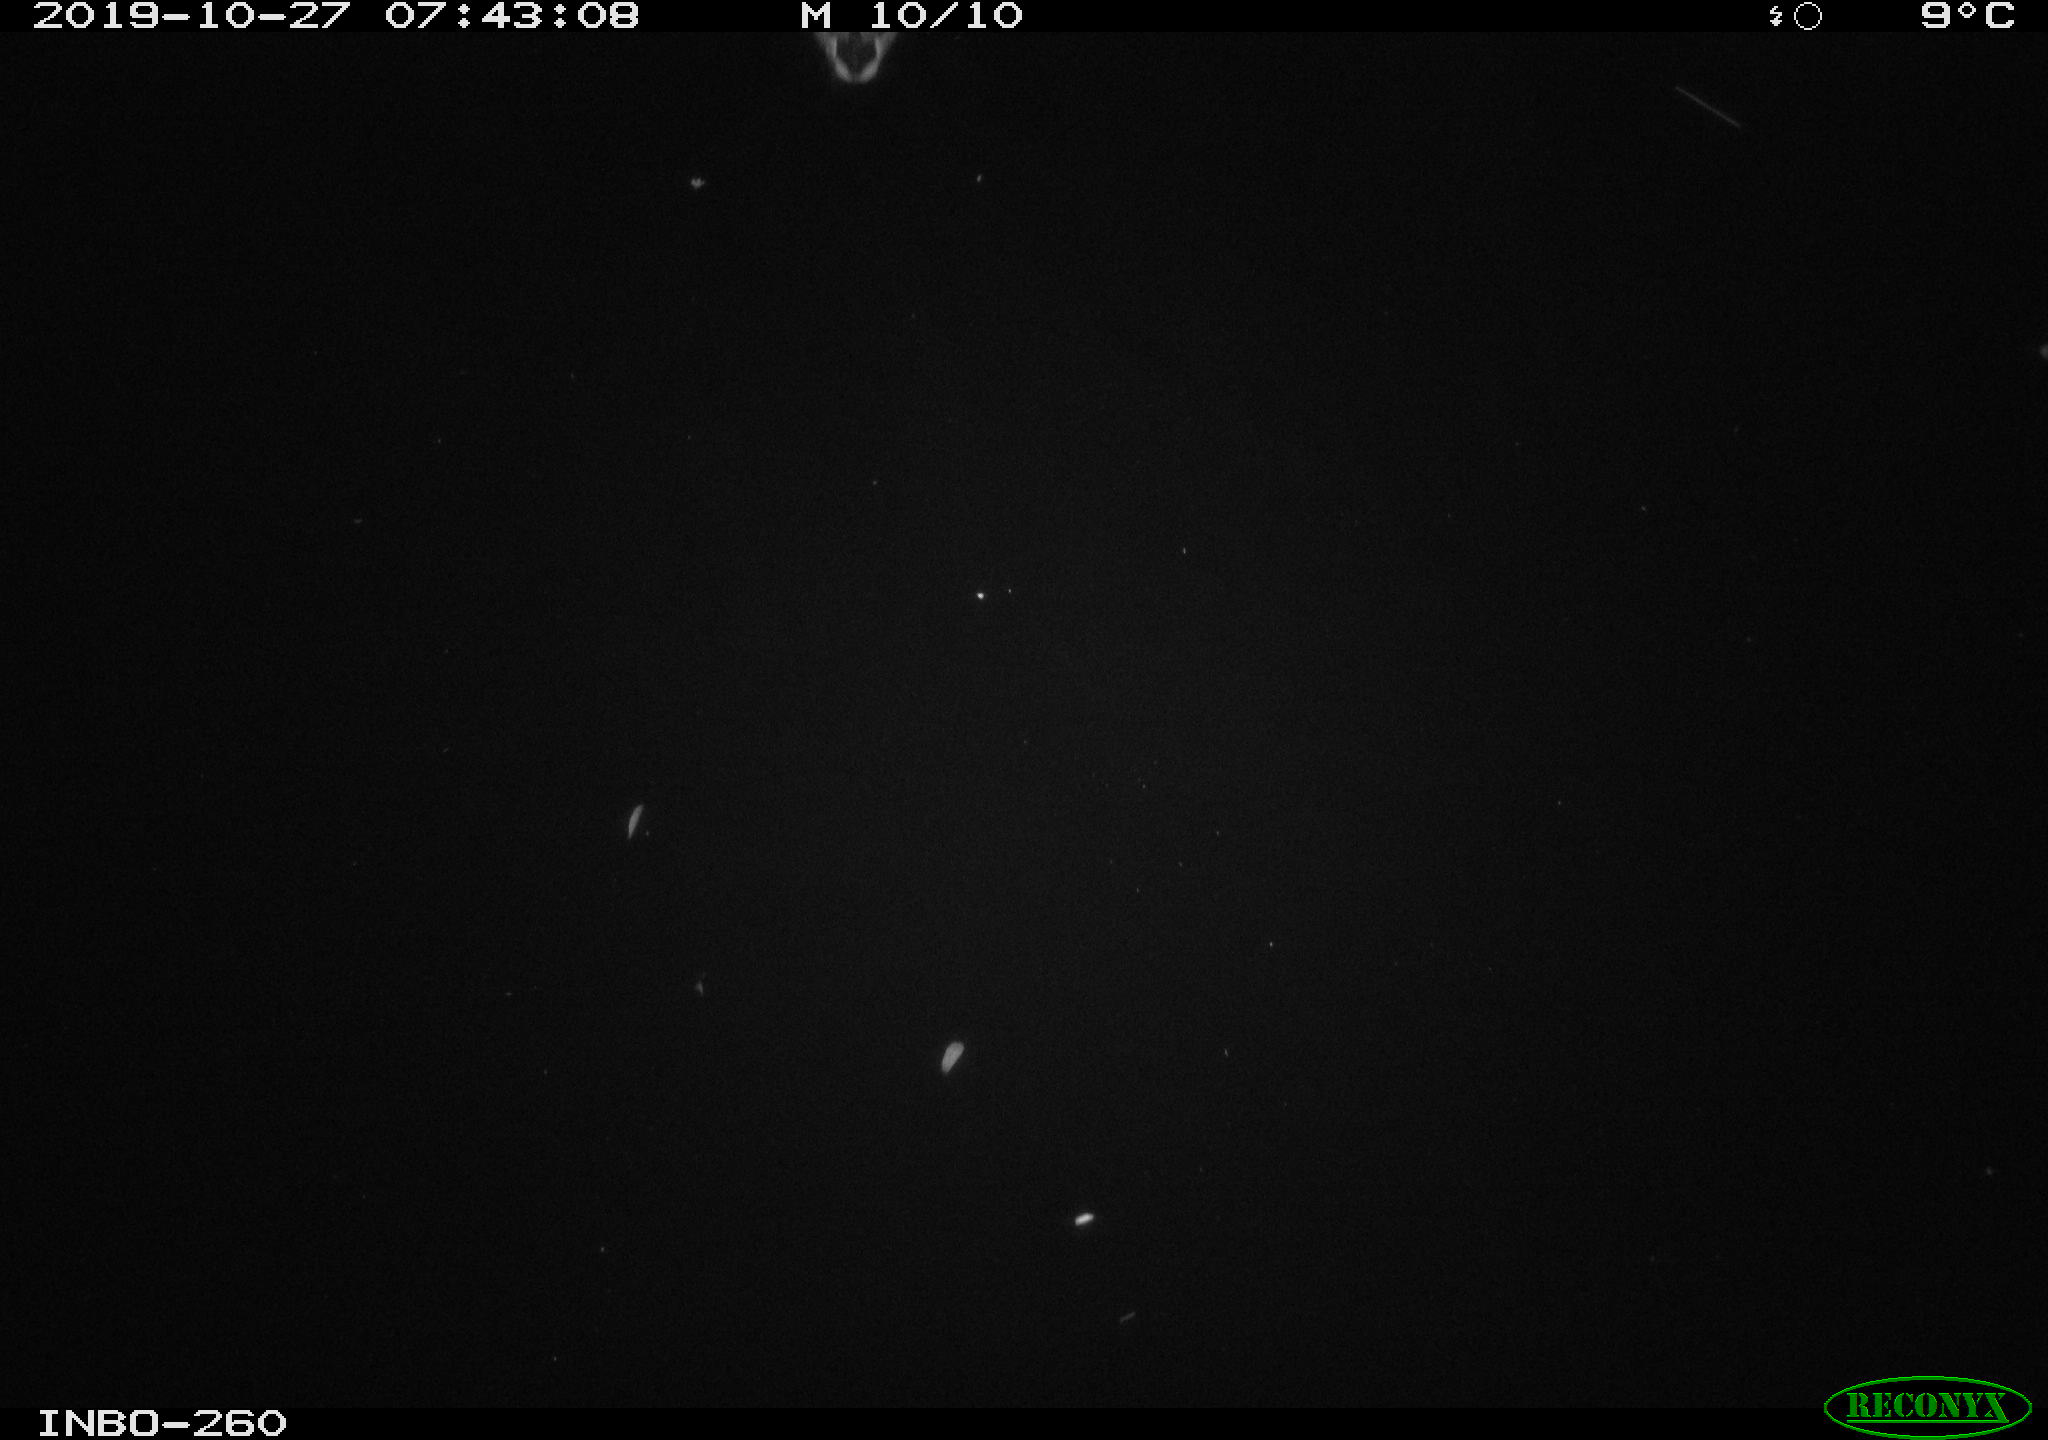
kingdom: Animalia
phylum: Chordata
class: Aves
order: Anseriformes
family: Anatidae
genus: Anas
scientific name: Anas platyrhynchos
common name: Mallard
